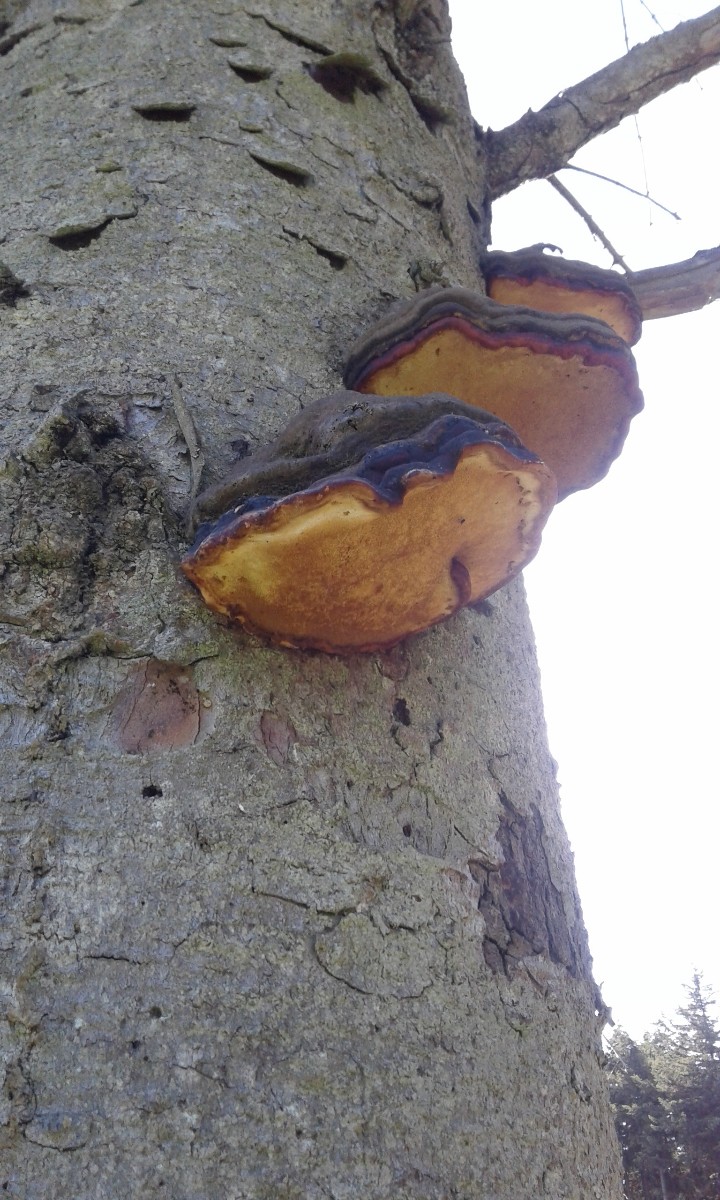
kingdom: Fungi
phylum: Basidiomycota
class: Agaricomycetes
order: Polyporales
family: Fomitopsidaceae
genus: Fomitopsis
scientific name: Fomitopsis pinicola
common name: randbæltet hovporesvamp
